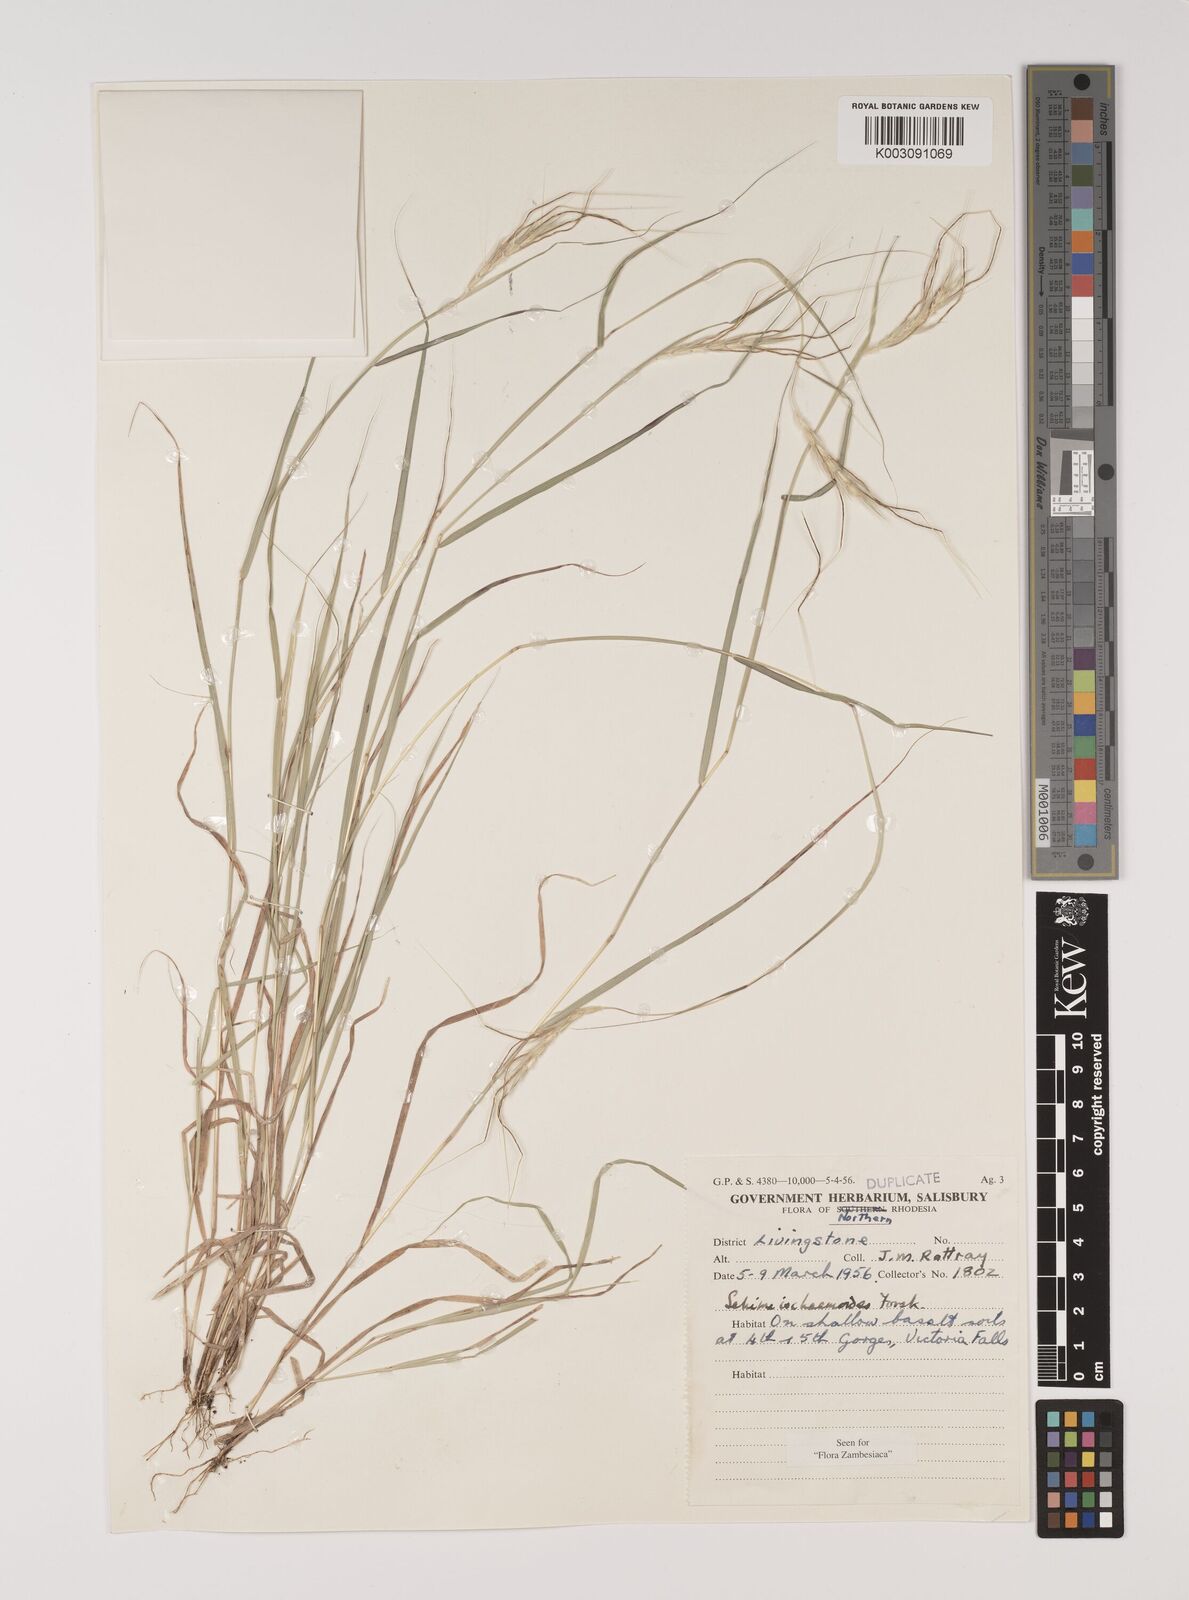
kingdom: Plantae
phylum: Tracheophyta
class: Liliopsida
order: Poales
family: Poaceae
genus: Sehima
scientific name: Sehima ischaemoides
